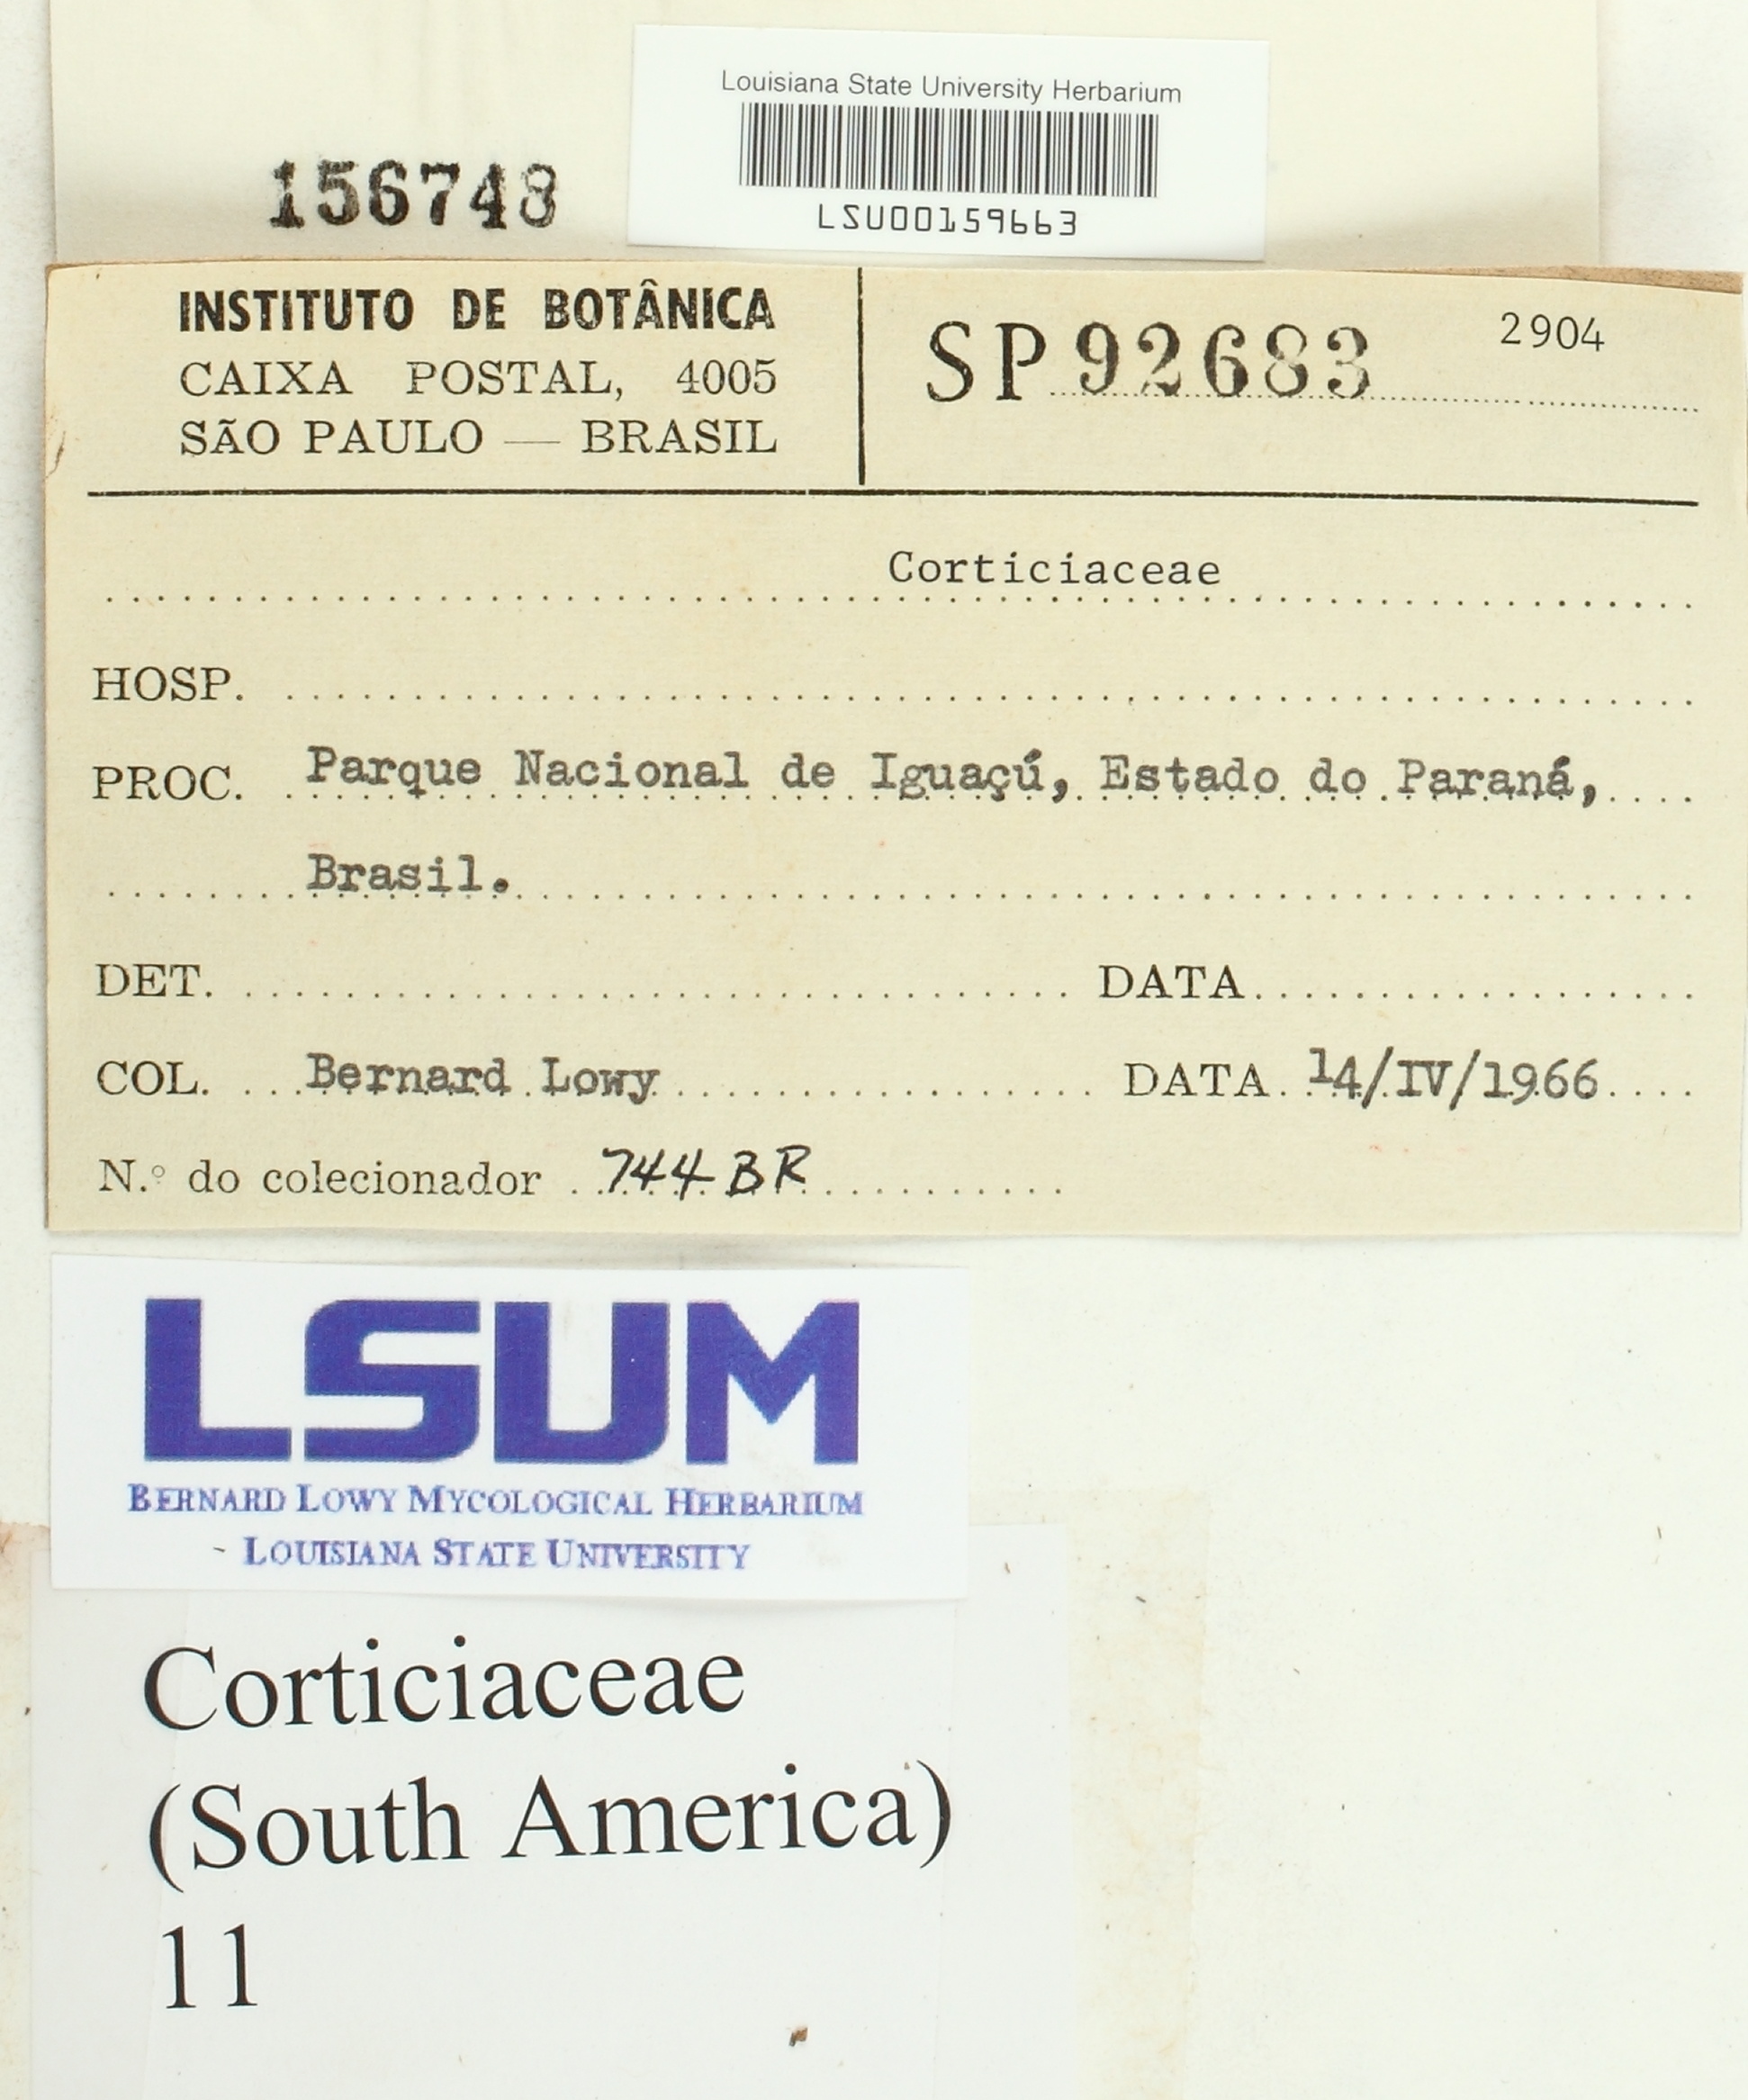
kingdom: Fungi
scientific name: Fungi
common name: Fungi
